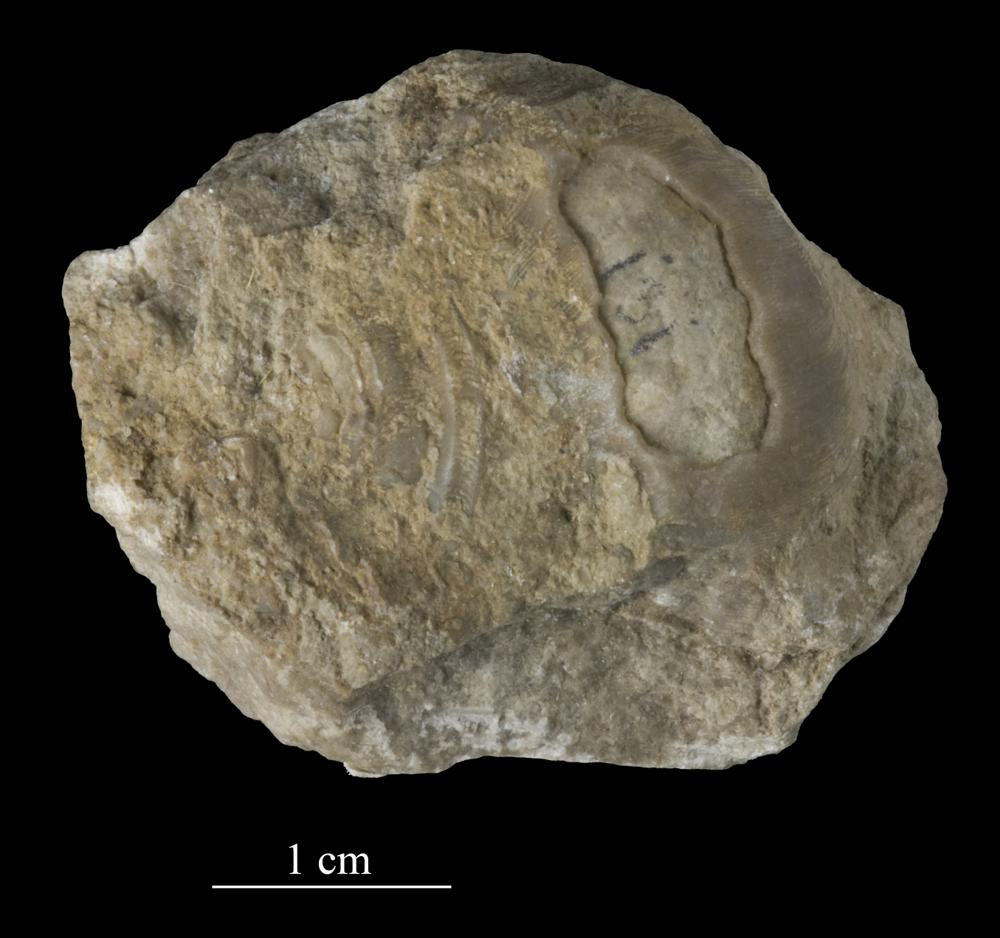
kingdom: Animalia
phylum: Mollusca
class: Gastropoda
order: Pleurotomariida
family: Phanerotrematidae
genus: Brachytomaria
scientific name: Brachytomaria Pleurotomaria baltica
